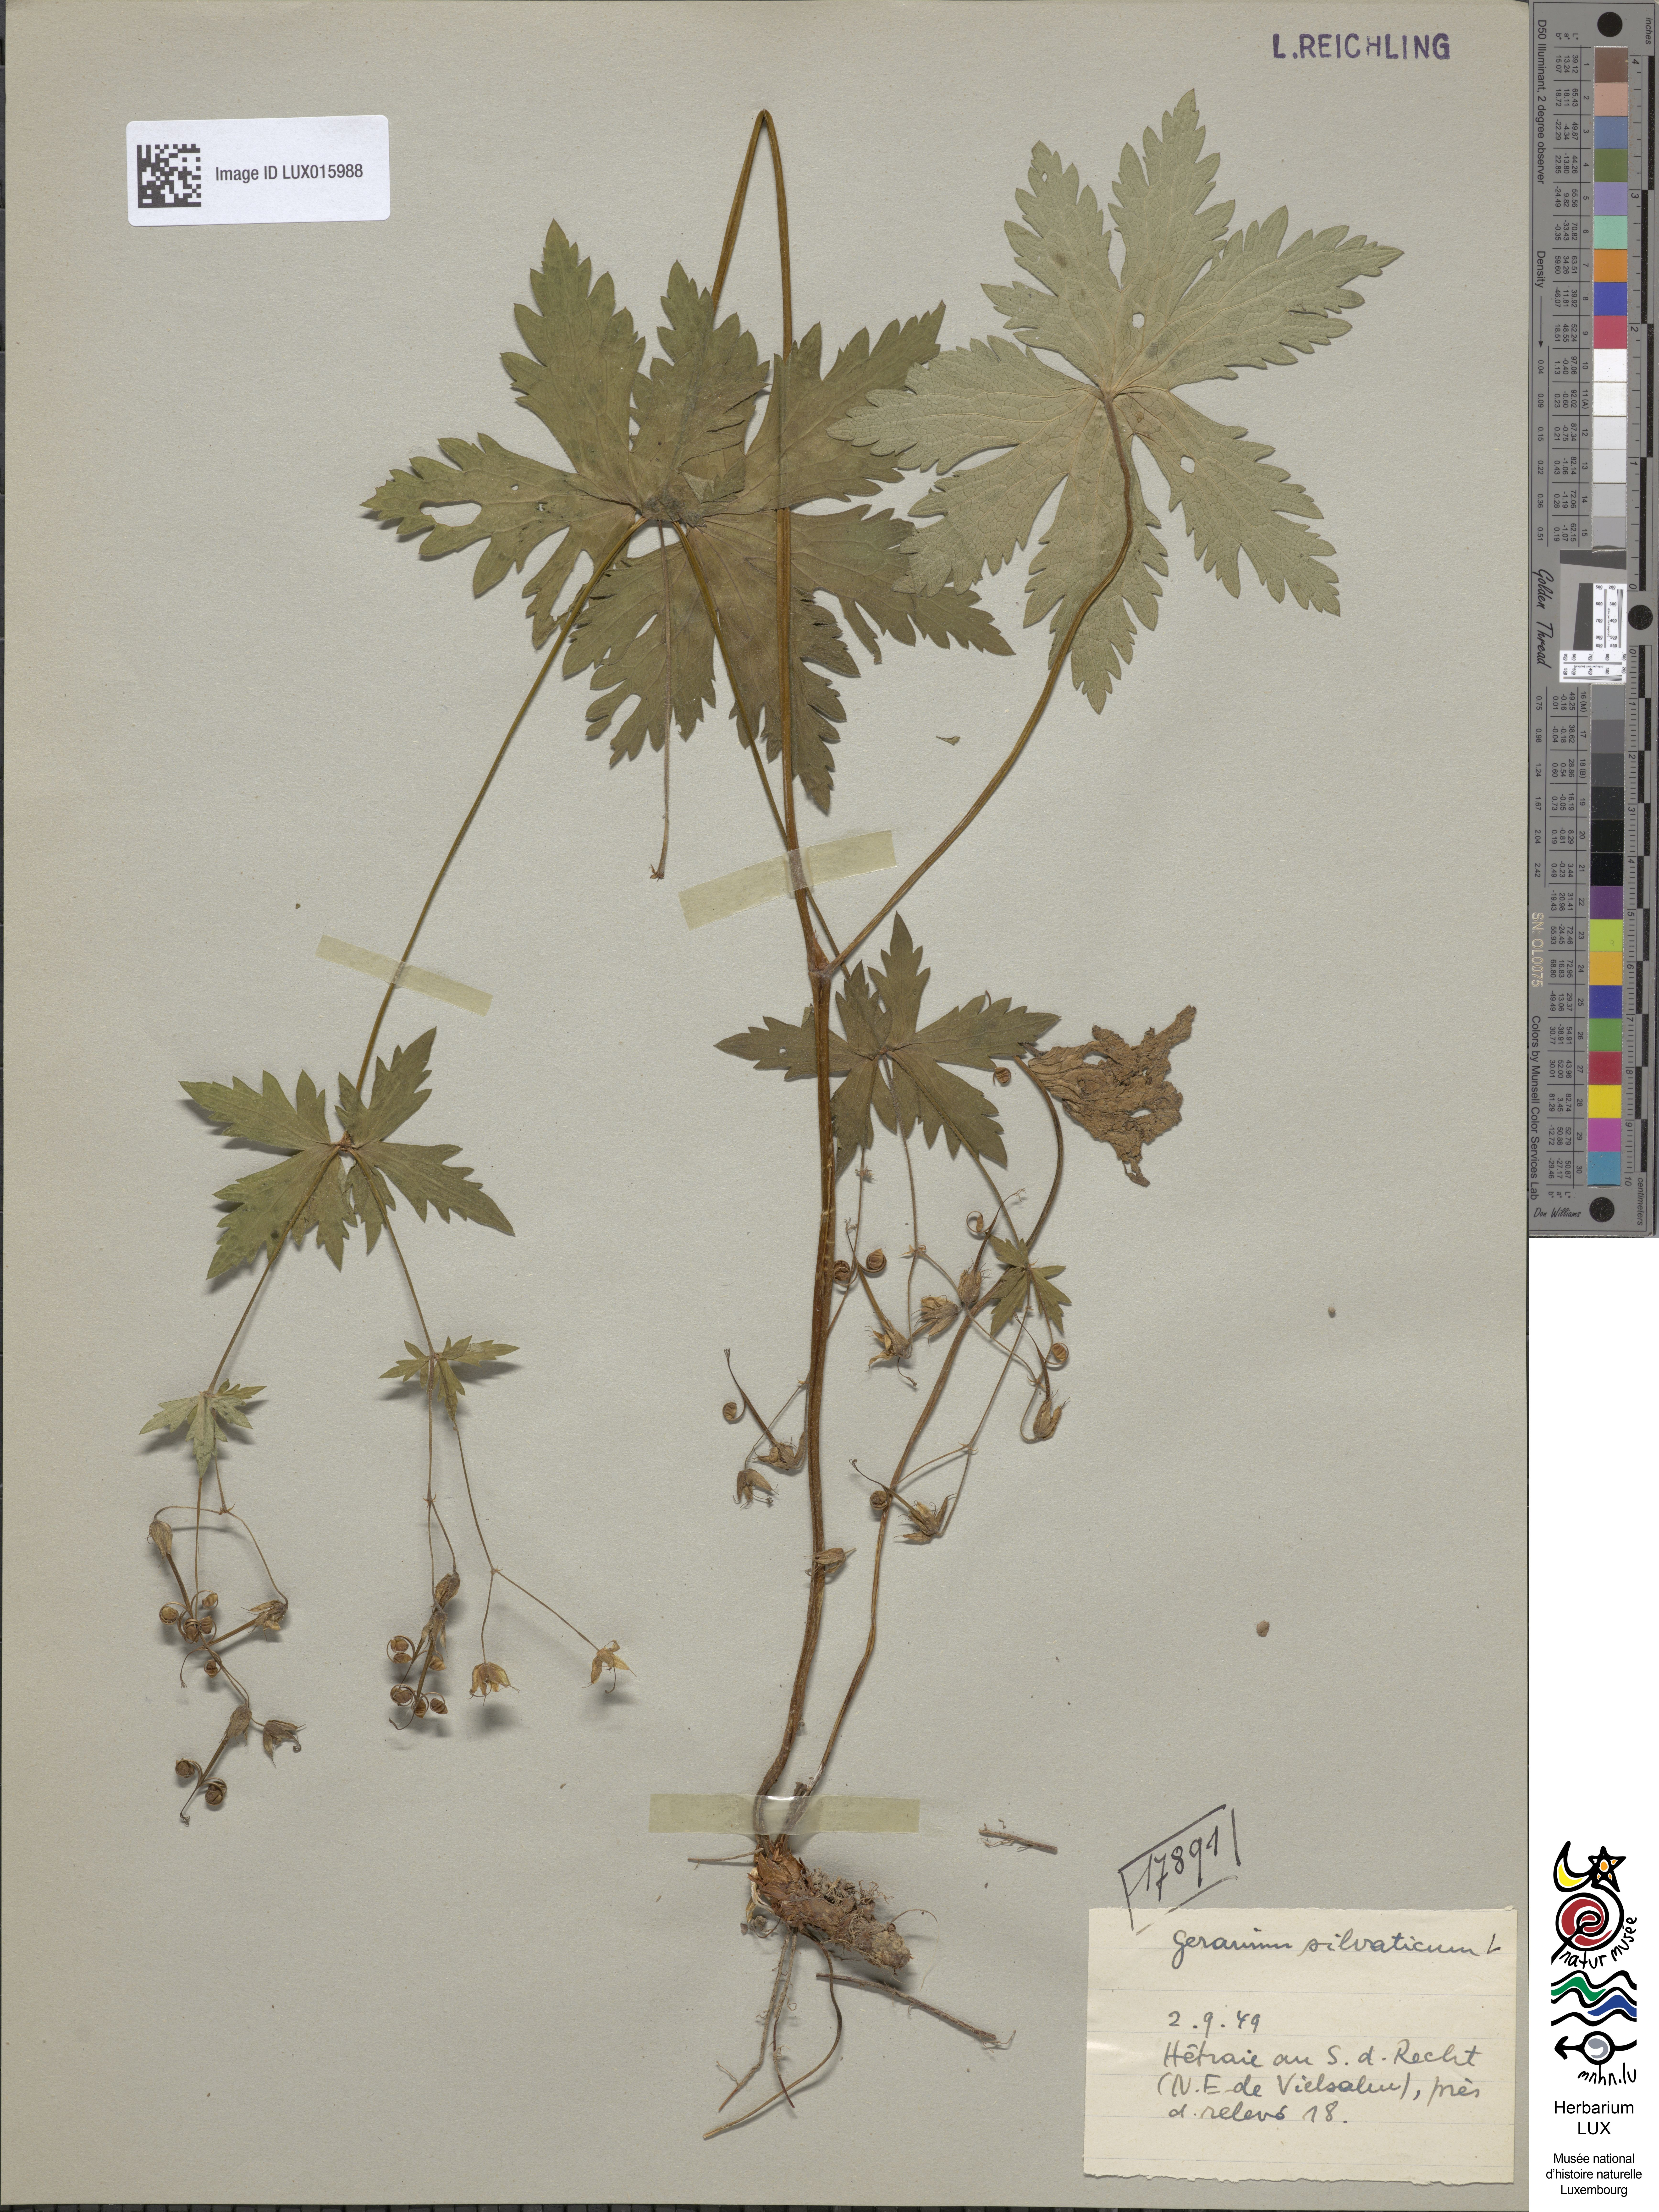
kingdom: Plantae
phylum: Tracheophyta
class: Magnoliopsida
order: Geraniales
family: Geraniaceae
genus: Geranium
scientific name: Geranium sylvaticum
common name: Wood crane's-bill
